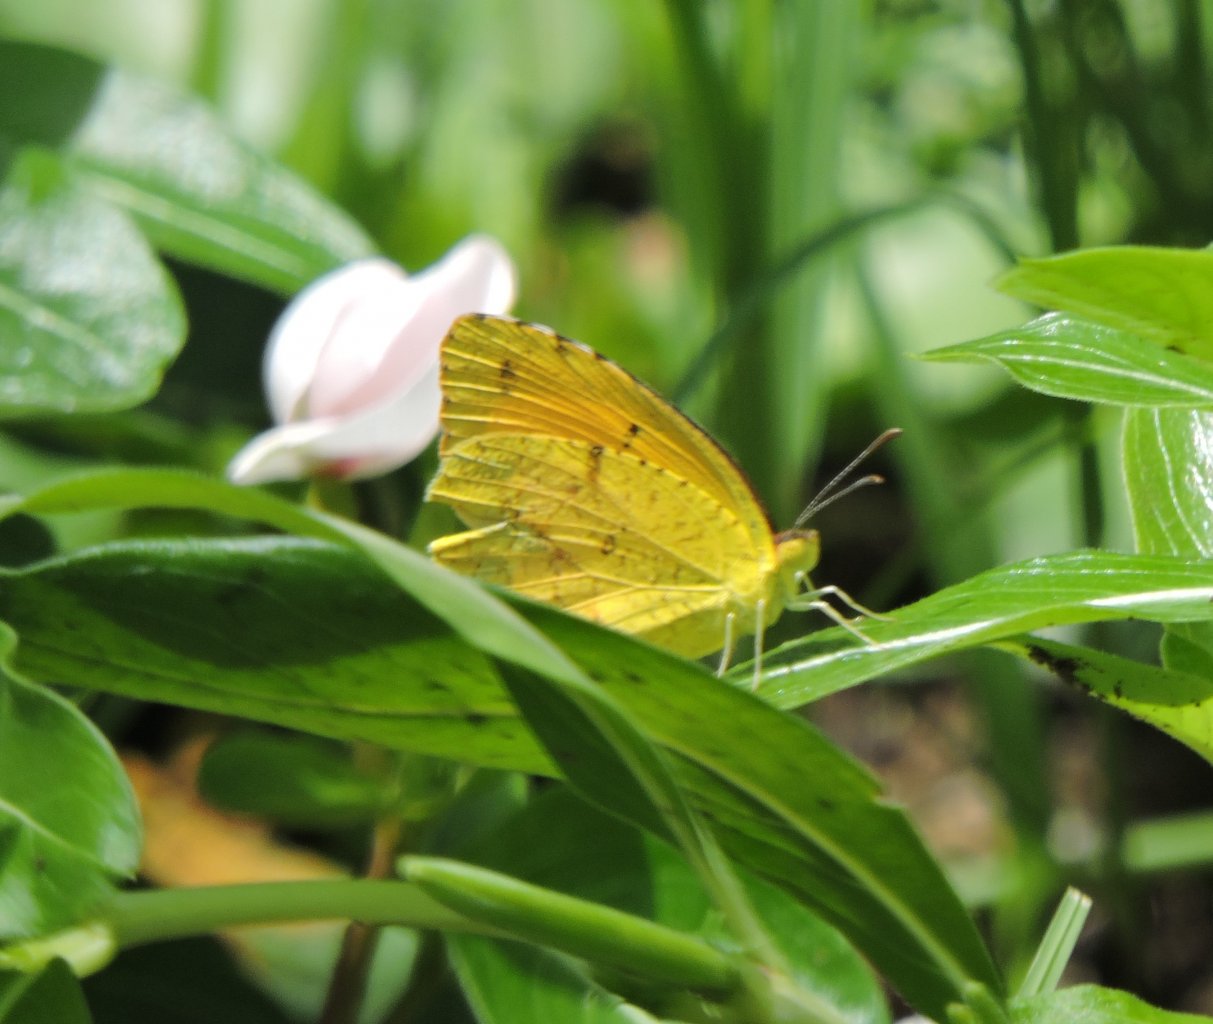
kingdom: Animalia
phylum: Arthropoda
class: Insecta
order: Lepidoptera
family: Pieridae
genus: Abaeis
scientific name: Abaeis nicippe
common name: Sleepy Orange
